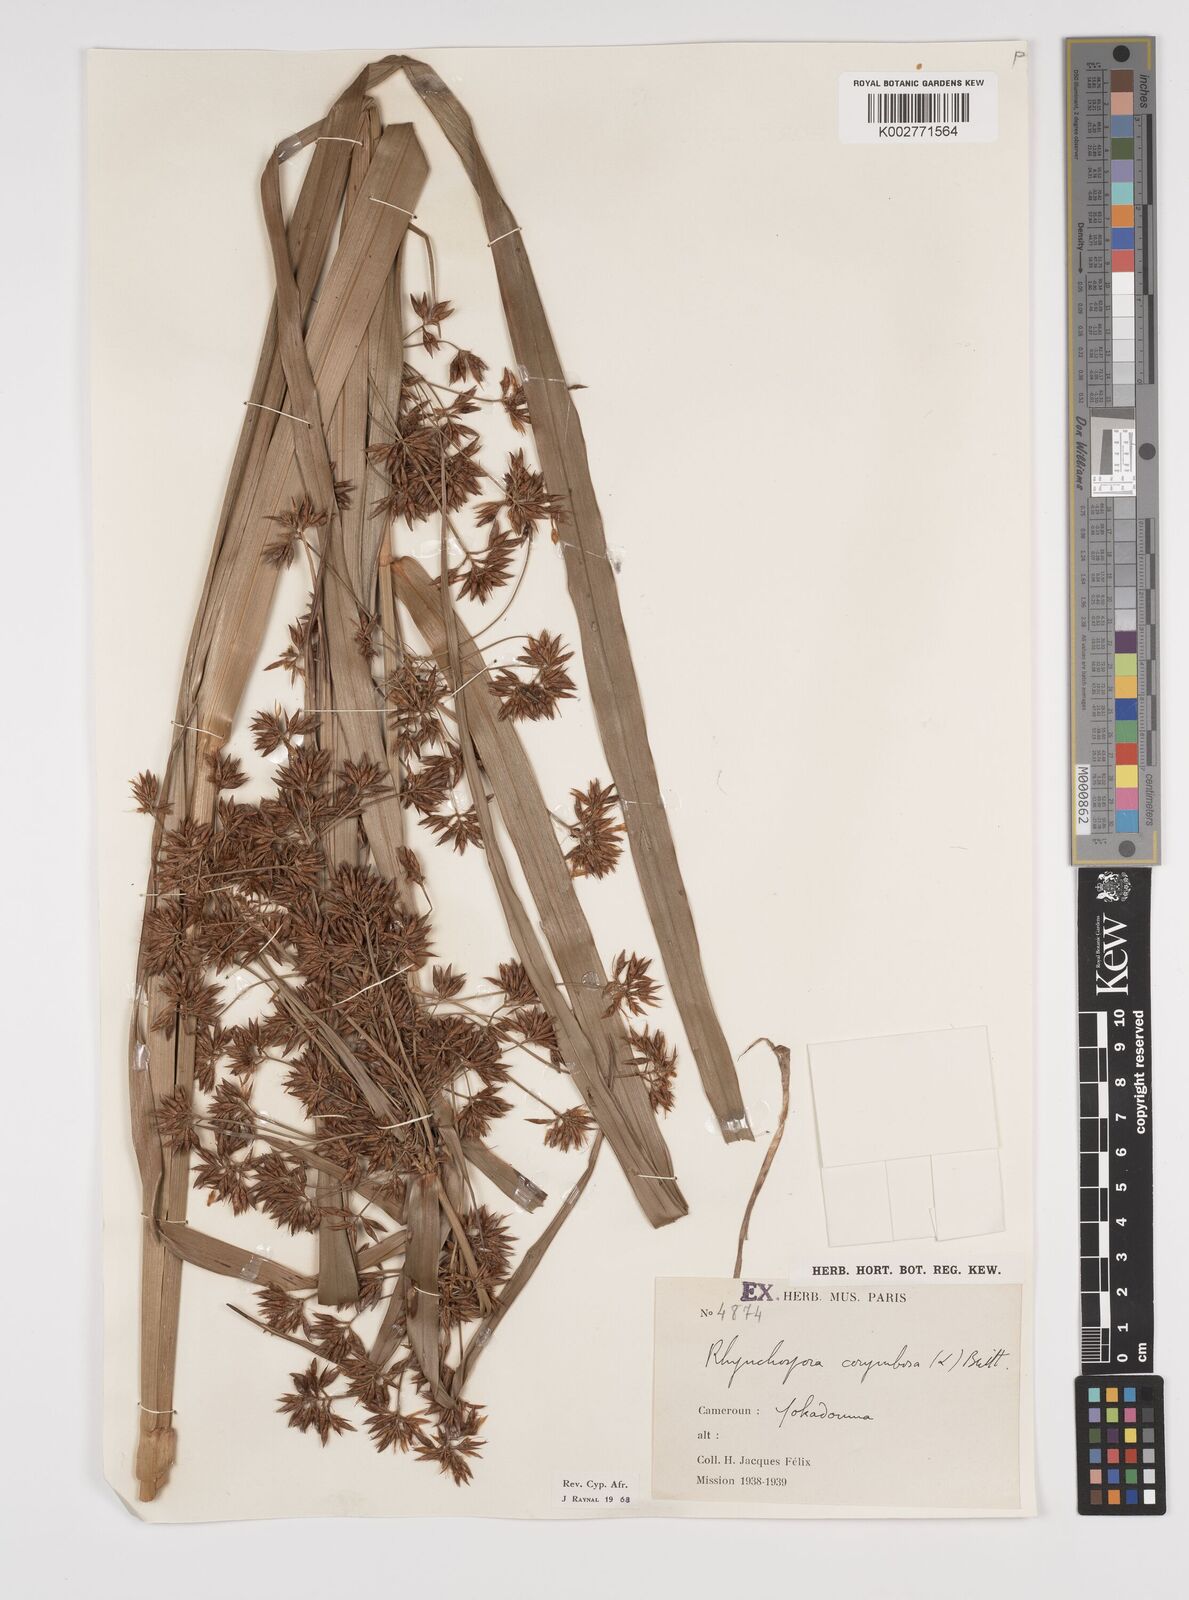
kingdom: Plantae
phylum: Tracheophyta
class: Liliopsida
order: Poales
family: Cyperaceae
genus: Rhynchospora
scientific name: Rhynchospora corymbosa
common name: Golden beak sedge
